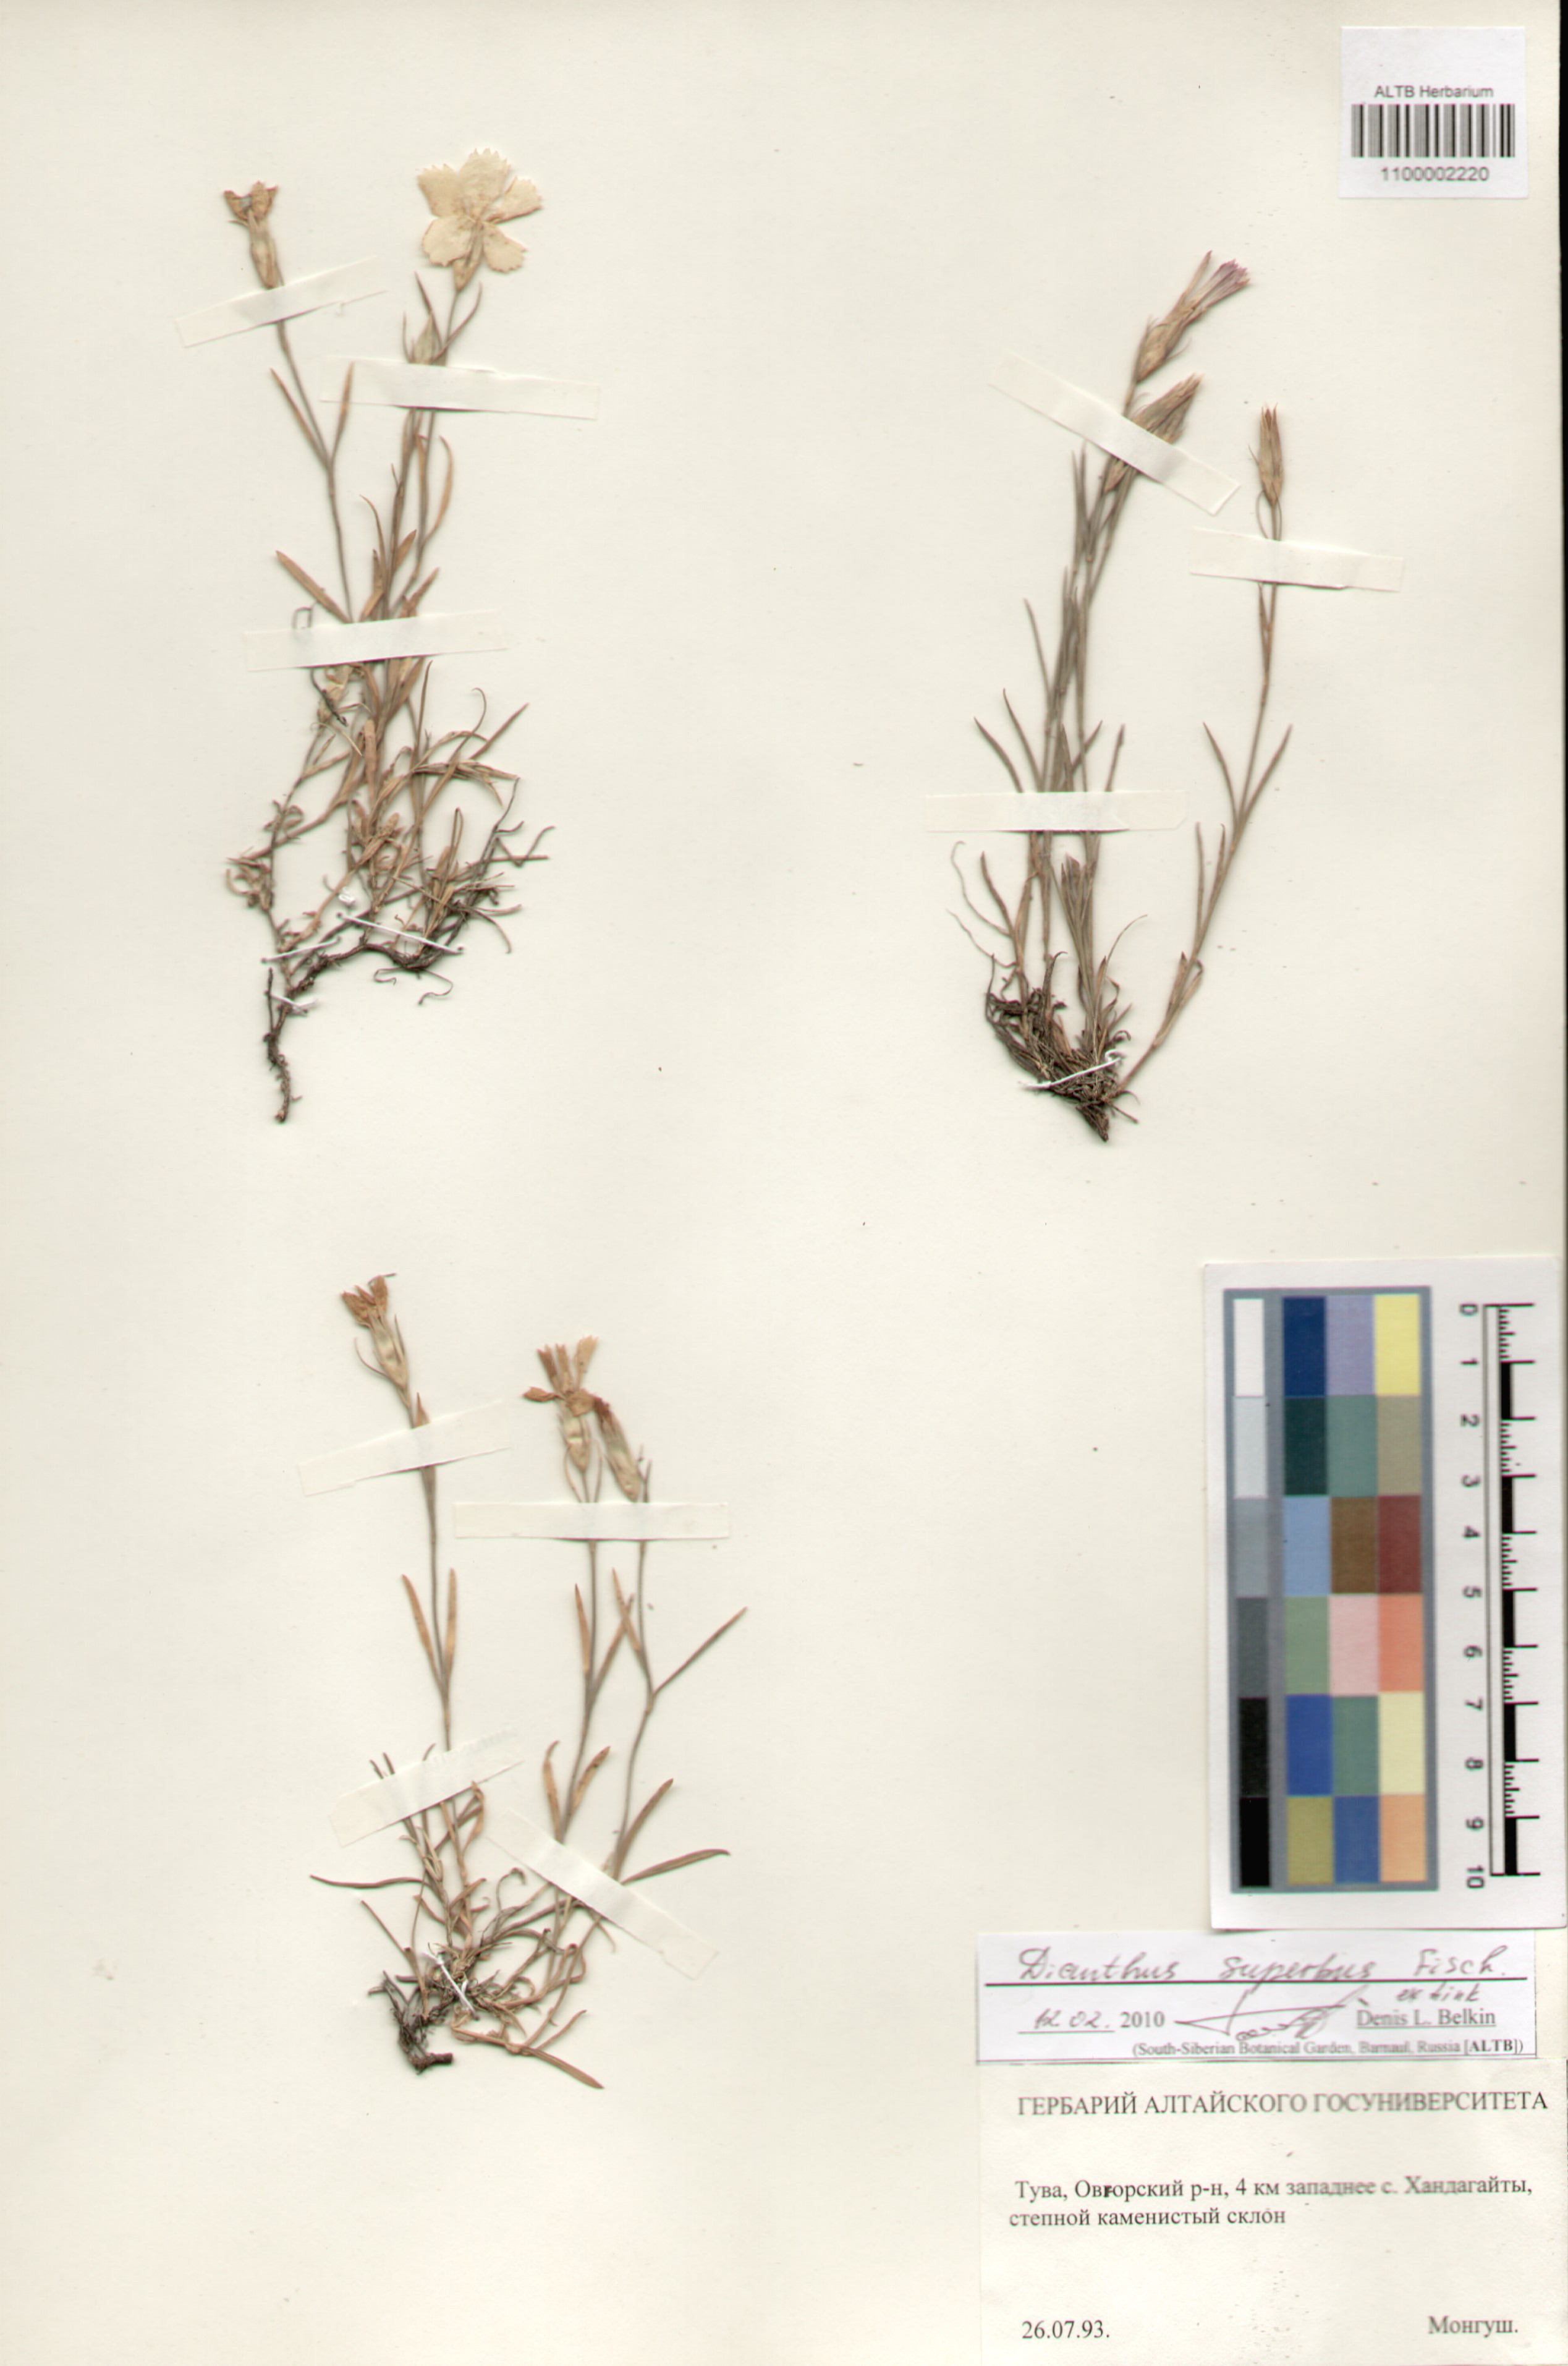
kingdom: Plantae
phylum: Tracheophyta
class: Magnoliopsida
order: Caryophyllales
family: Caryophyllaceae
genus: Dianthus
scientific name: Dianthus chinensis
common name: Rainbow pink
